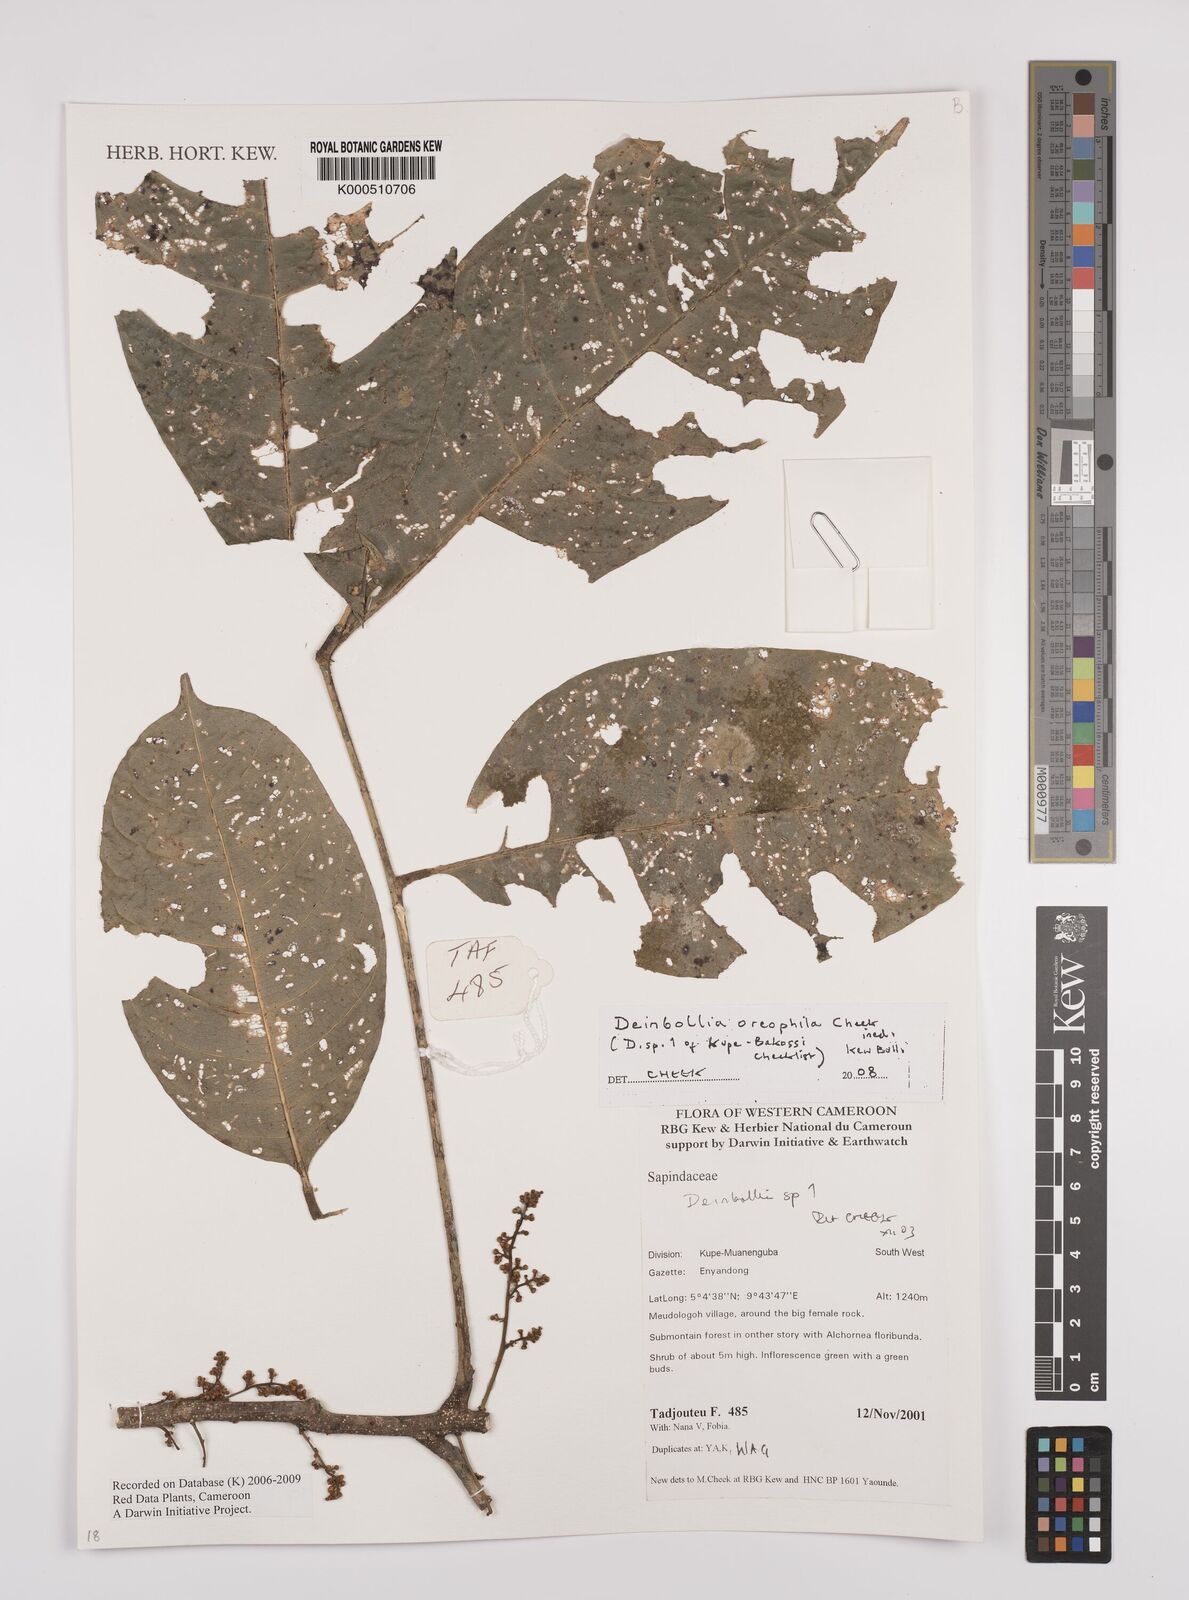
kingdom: Plantae
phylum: Tracheophyta
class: Magnoliopsida
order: Sapindales
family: Sapindaceae
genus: Deinbollia
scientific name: Deinbollia oreophila
